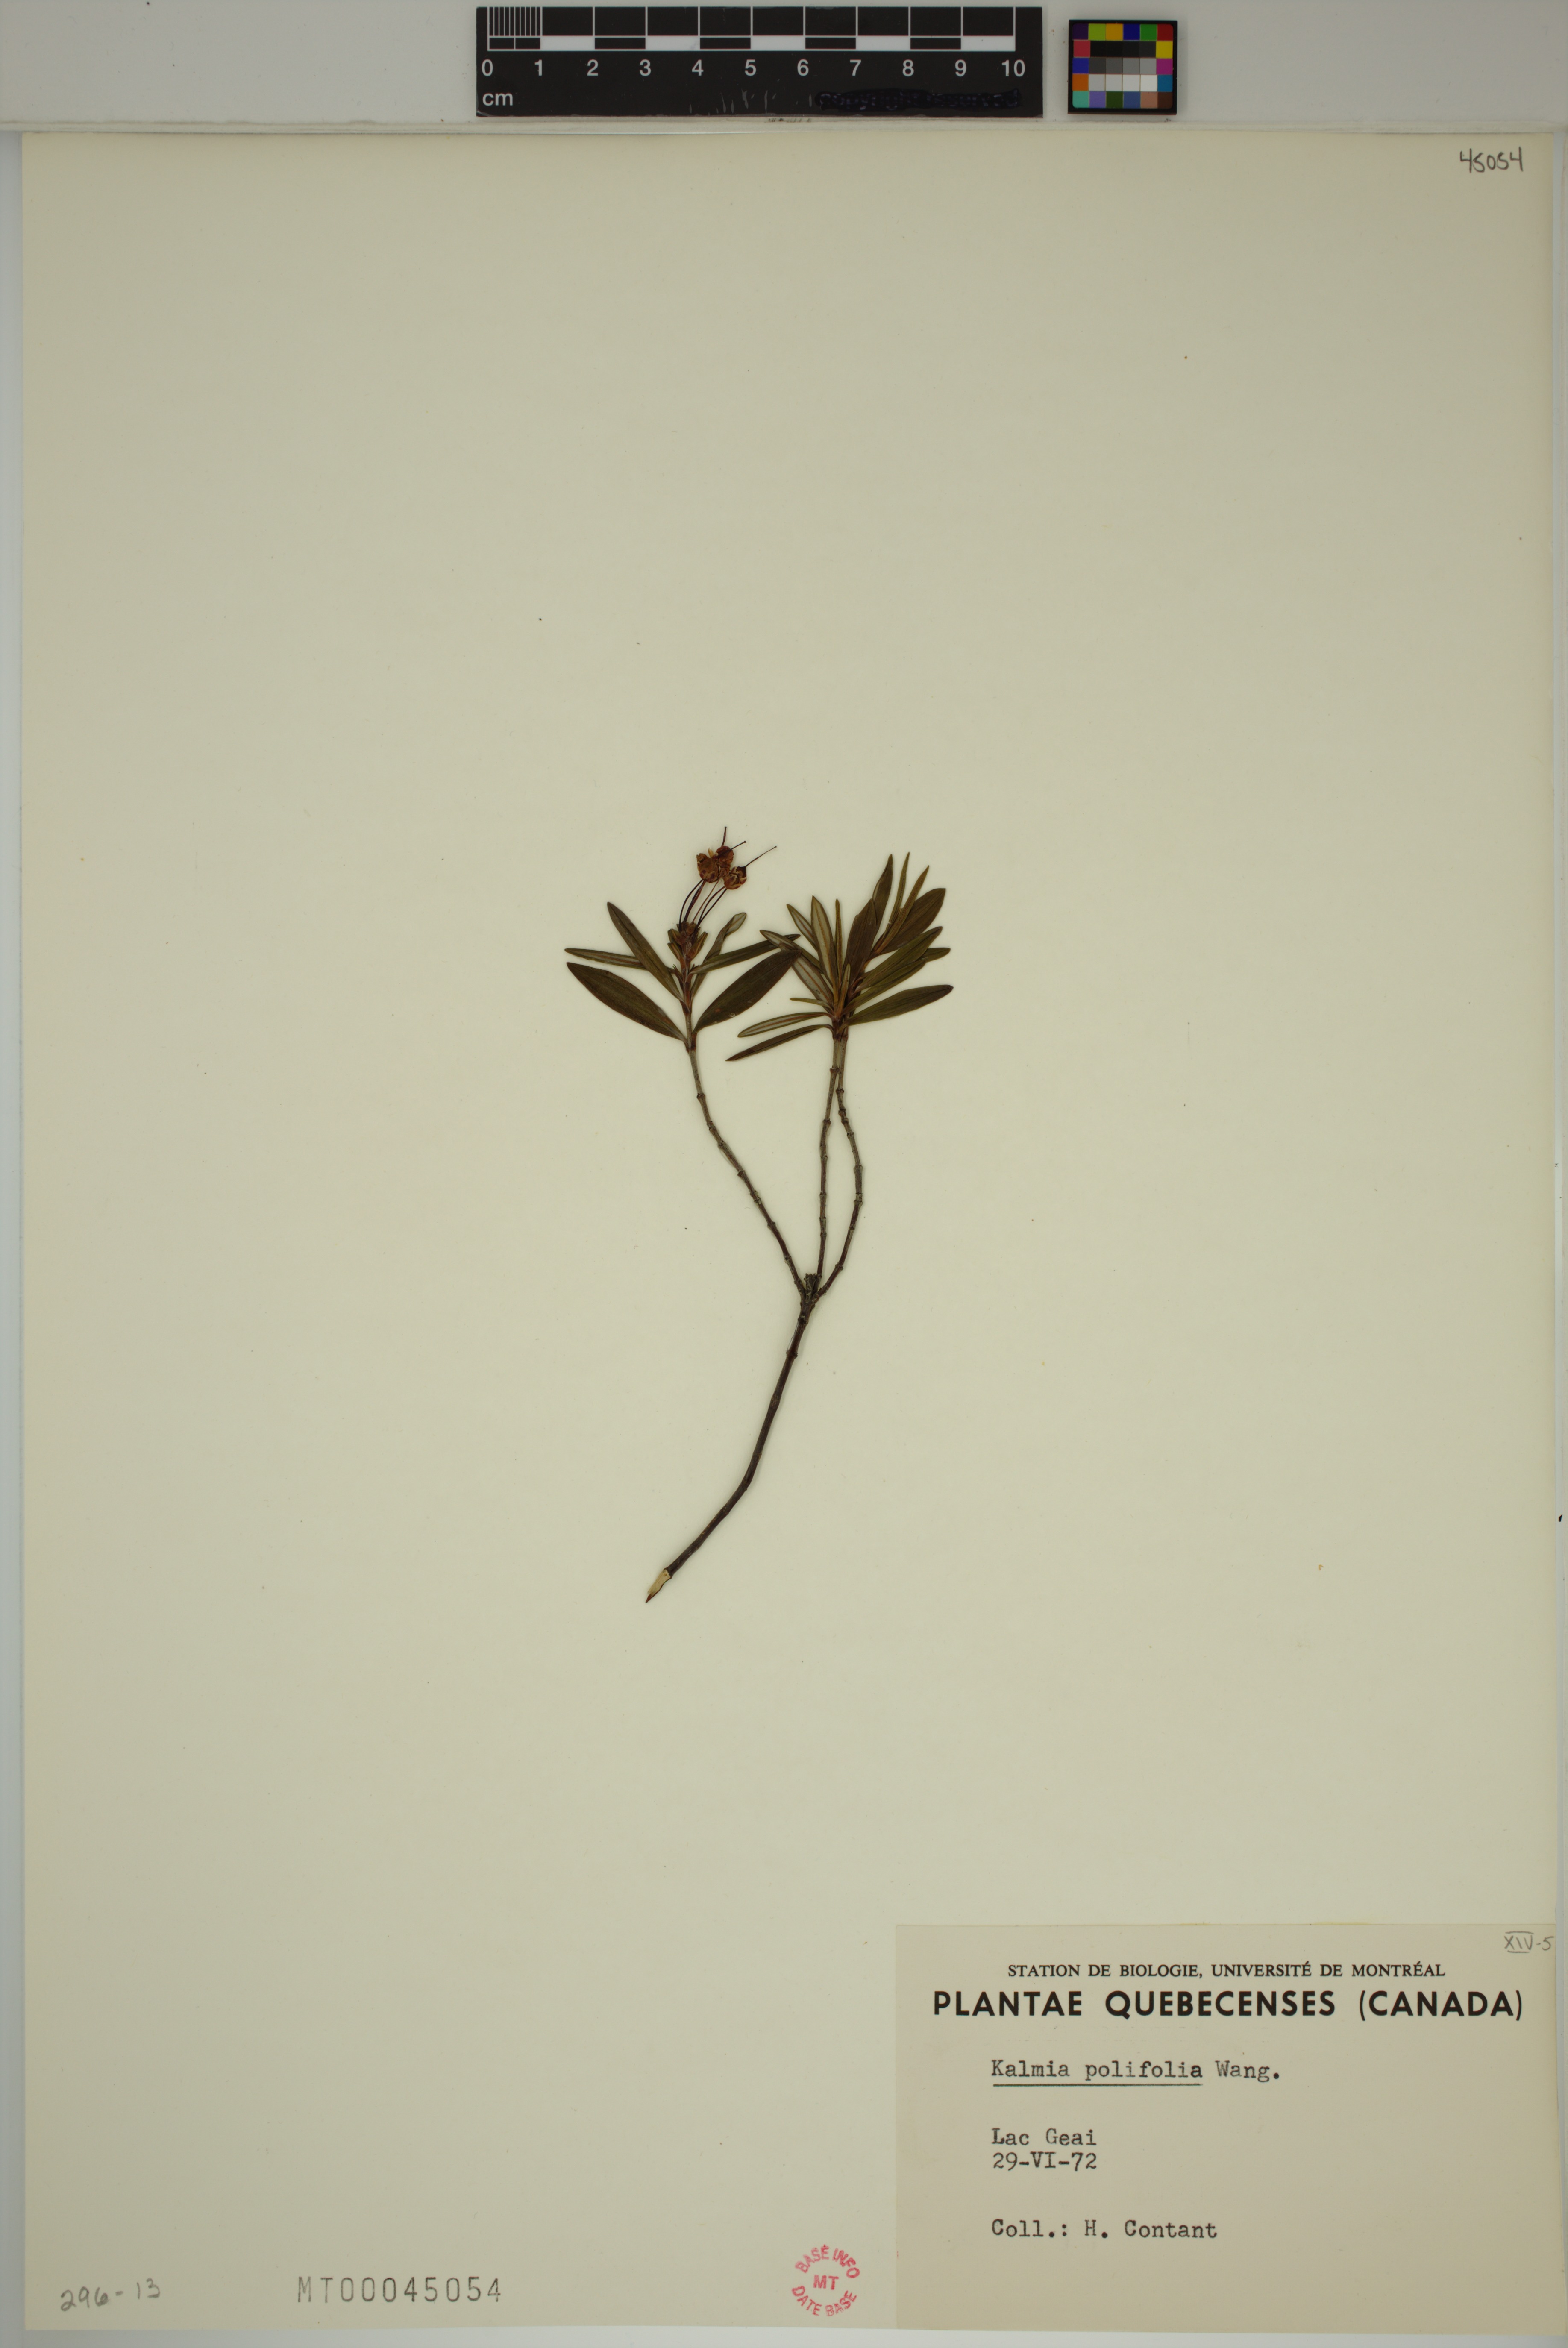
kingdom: Plantae
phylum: Tracheophyta
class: Magnoliopsida
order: Ericales
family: Ericaceae
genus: Kalmia
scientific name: Kalmia polifolia
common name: Bog-laurel
